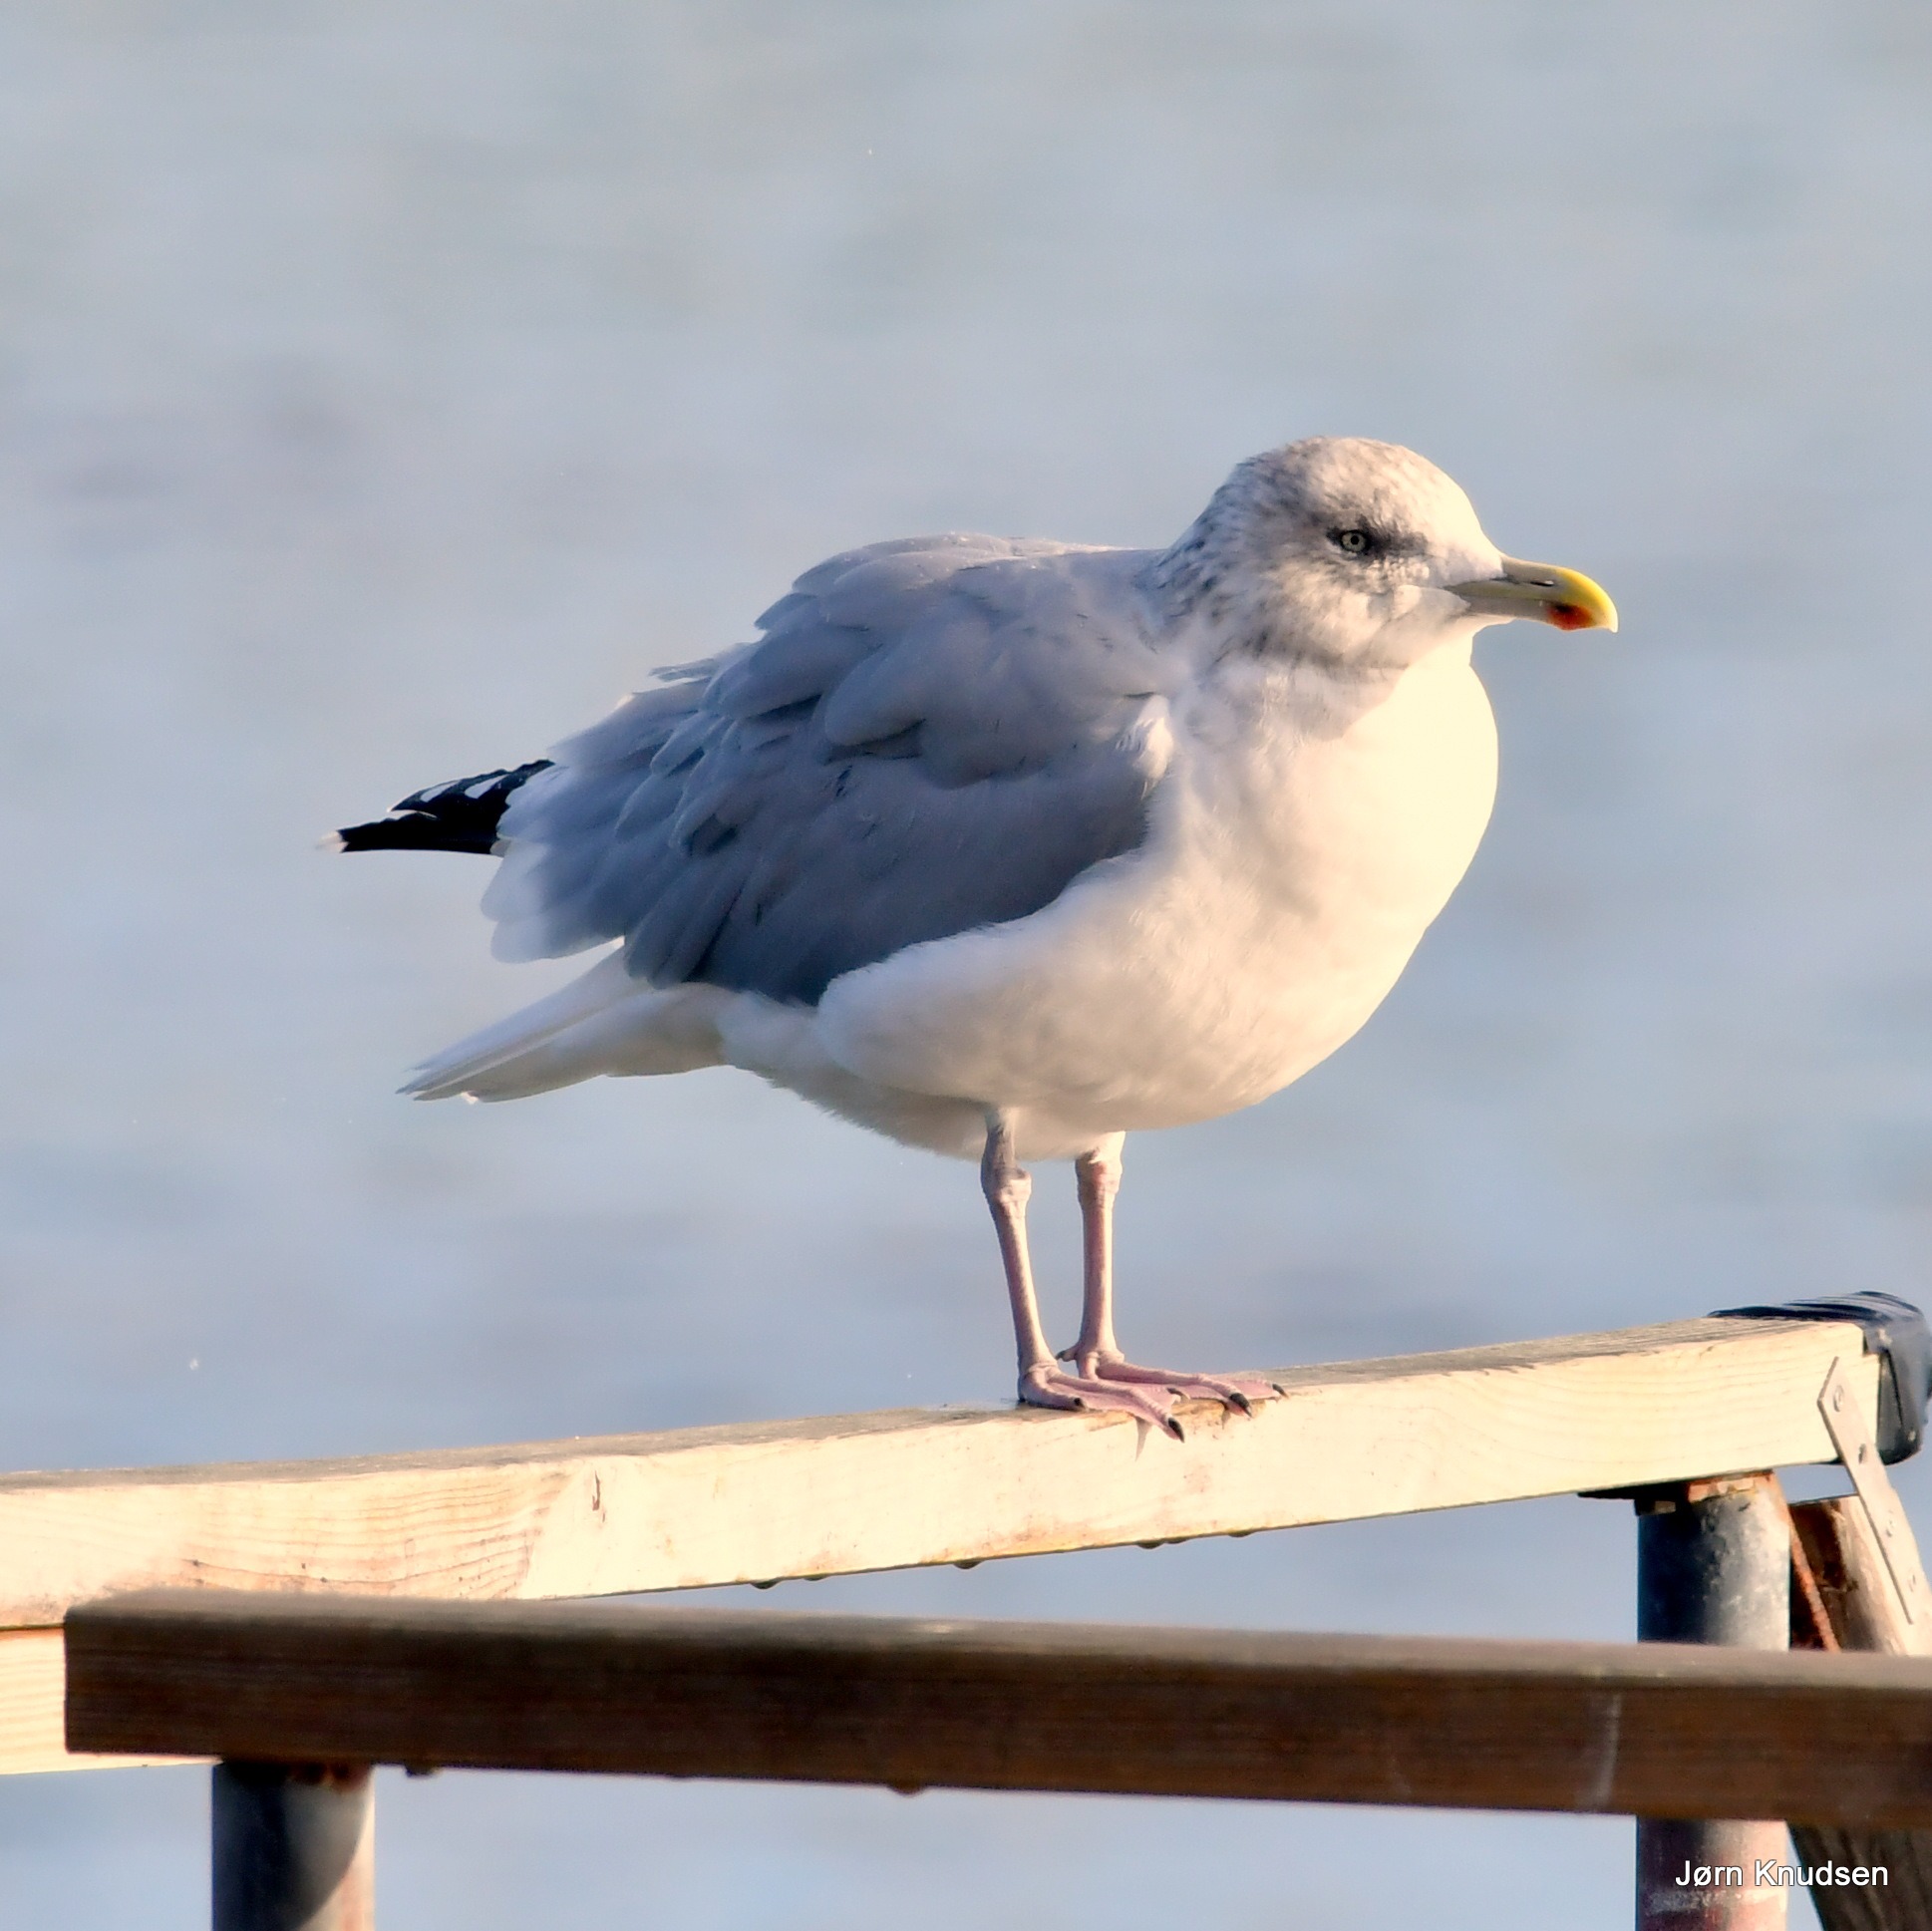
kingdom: Animalia
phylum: Chordata
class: Aves
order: Charadriiformes
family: Laridae
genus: Larus
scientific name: Larus argentatus
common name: Sølvmåge
